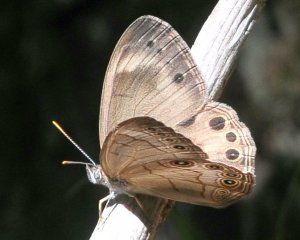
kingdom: Animalia
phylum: Arthropoda
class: Insecta
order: Lepidoptera
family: Nymphalidae
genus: Lethe
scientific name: Lethe eurydice
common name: Appalachian Eyed Brown
